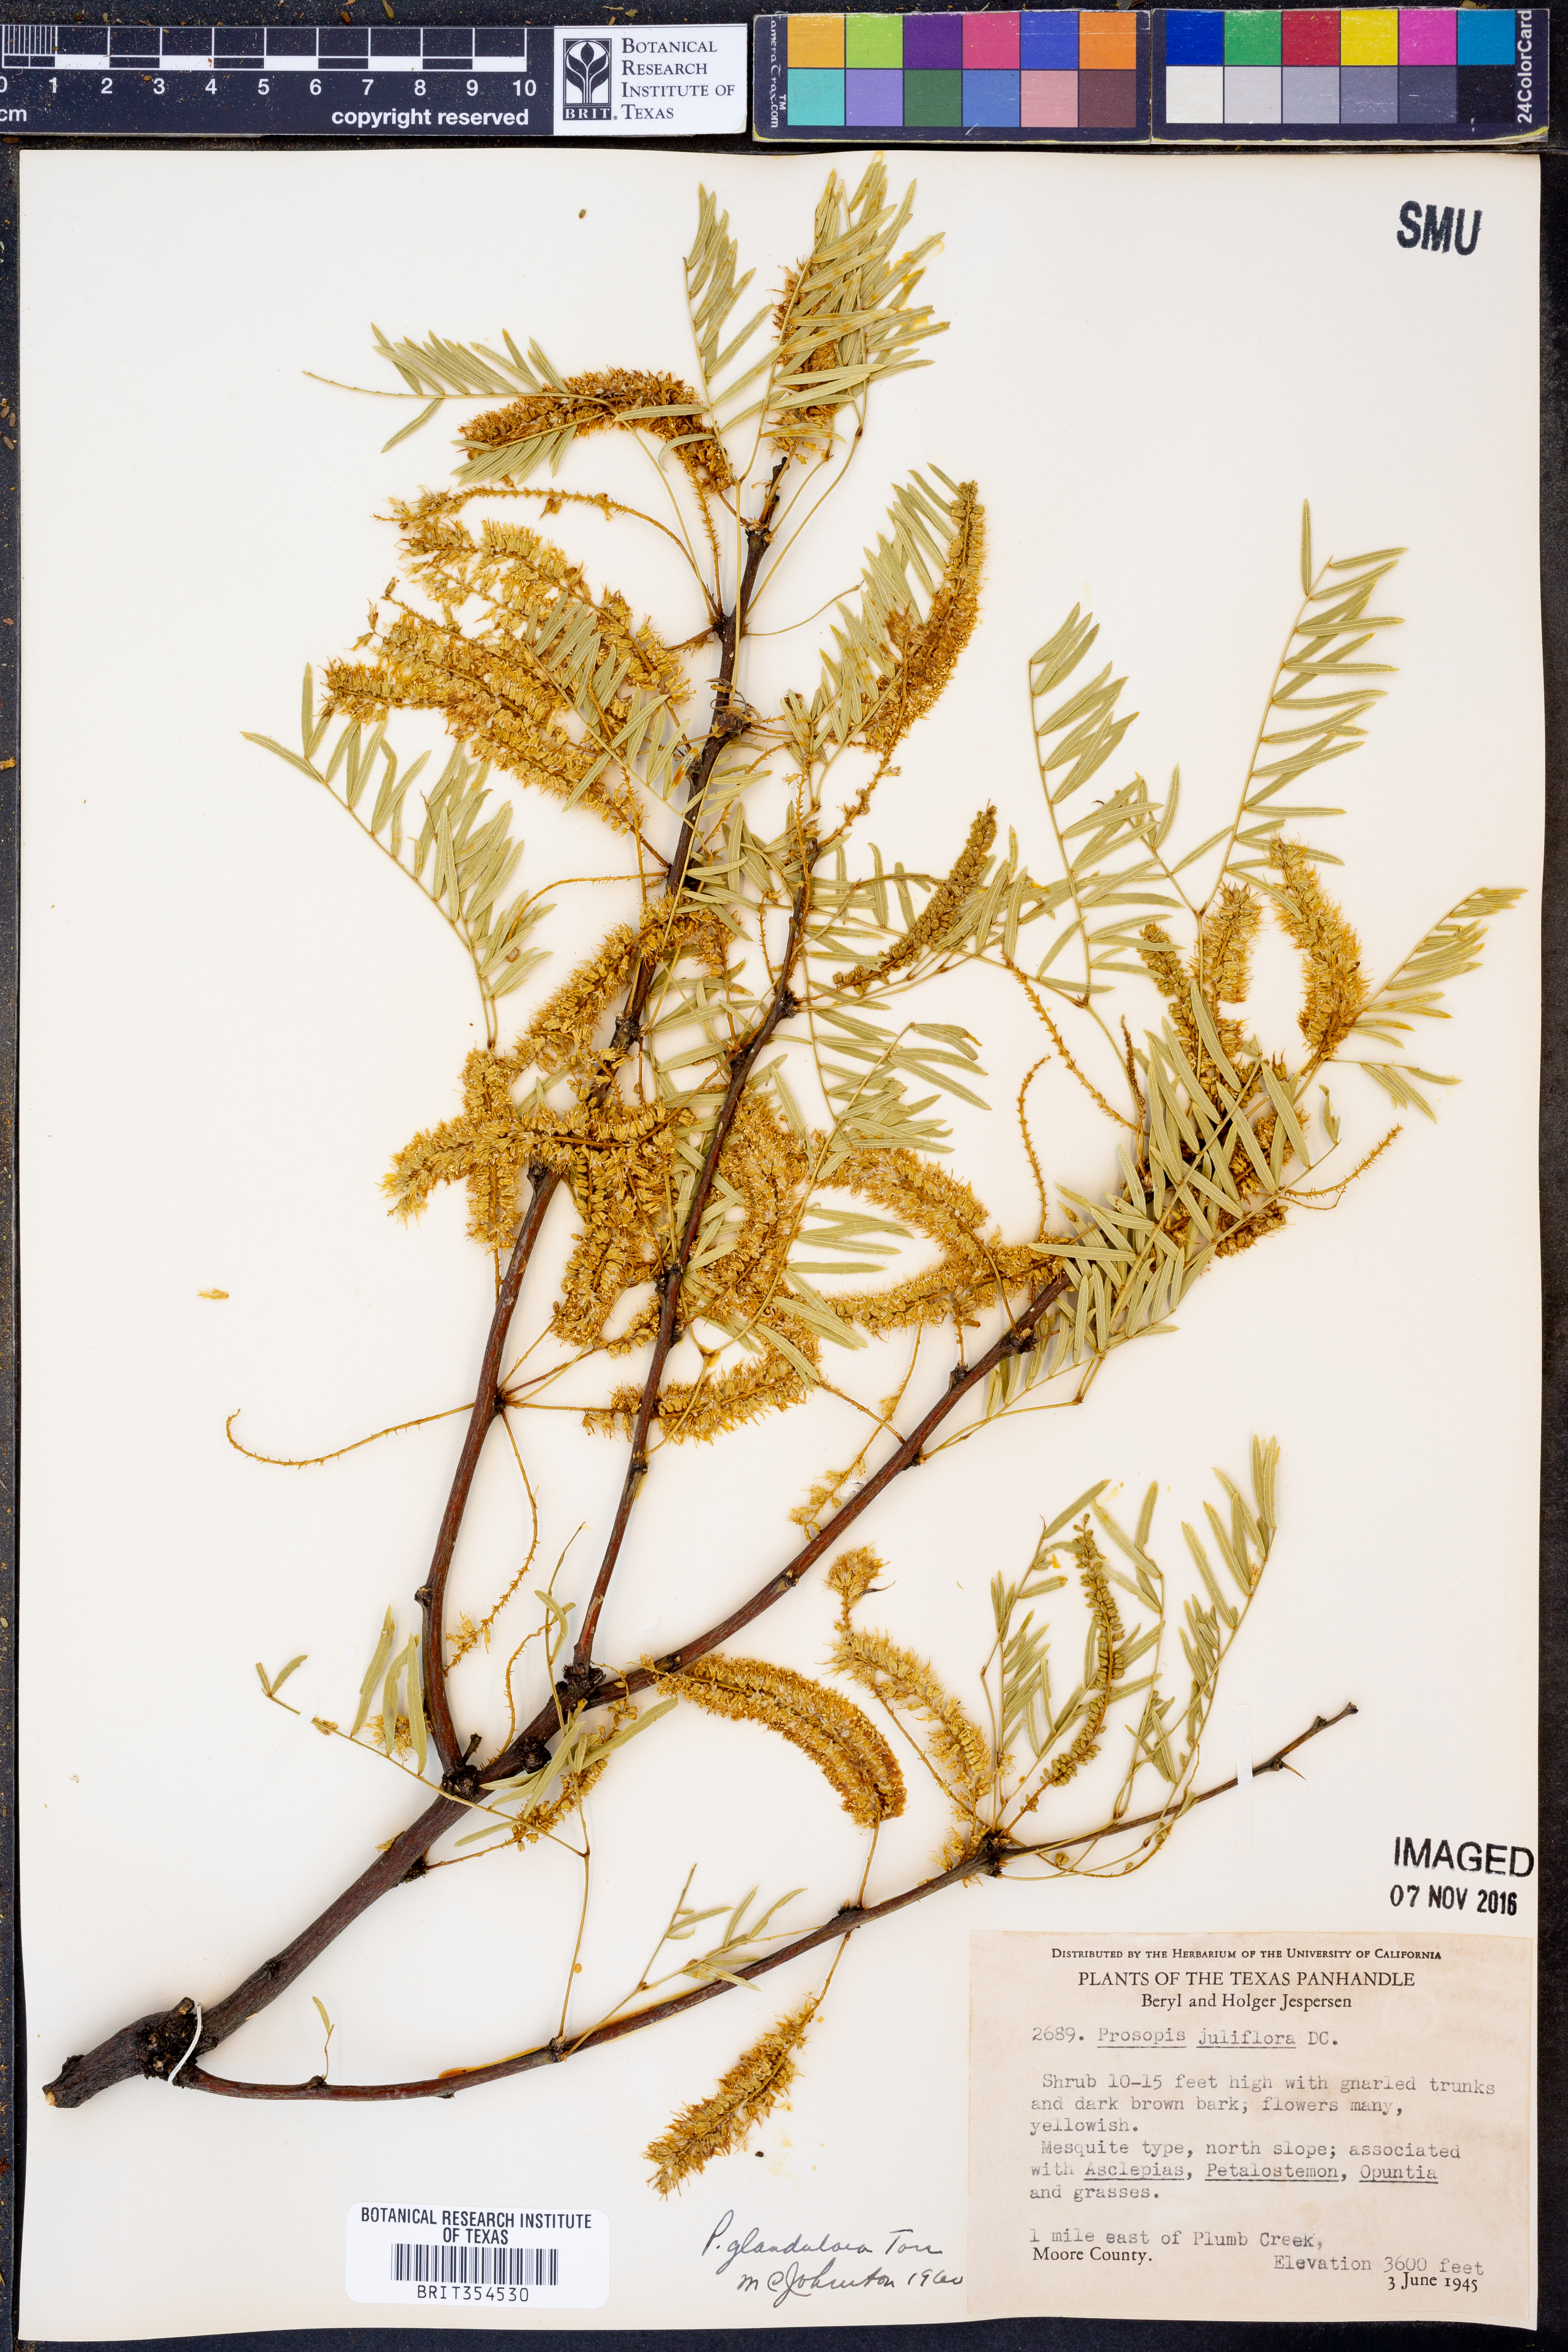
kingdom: Plantae
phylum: Tracheophyta
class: Magnoliopsida
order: Fabales
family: Fabaceae
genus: Prosopis
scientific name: Prosopis glandulosa
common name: Honey mesquite
